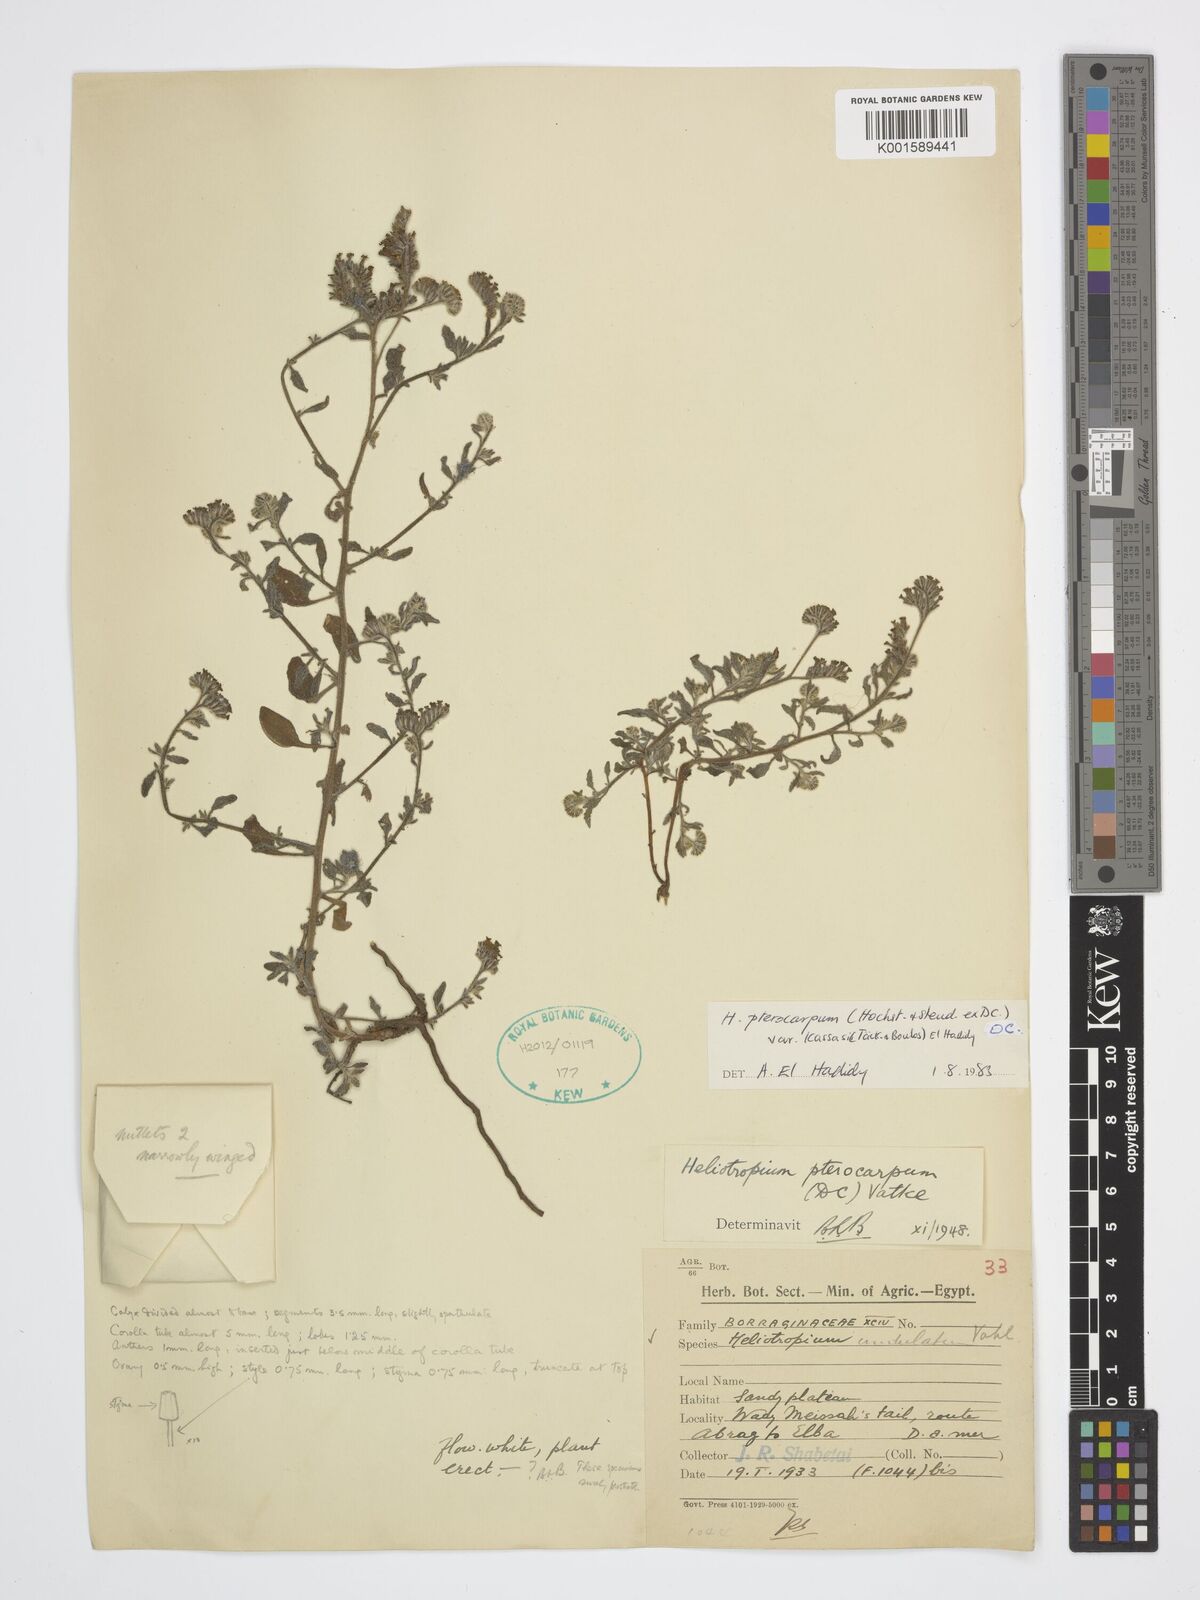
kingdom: Plantae
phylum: Tracheophyta
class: Magnoliopsida
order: Boraginales
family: Heliotropiaceae
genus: Heliotropium
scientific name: Heliotropium pterocarpum
